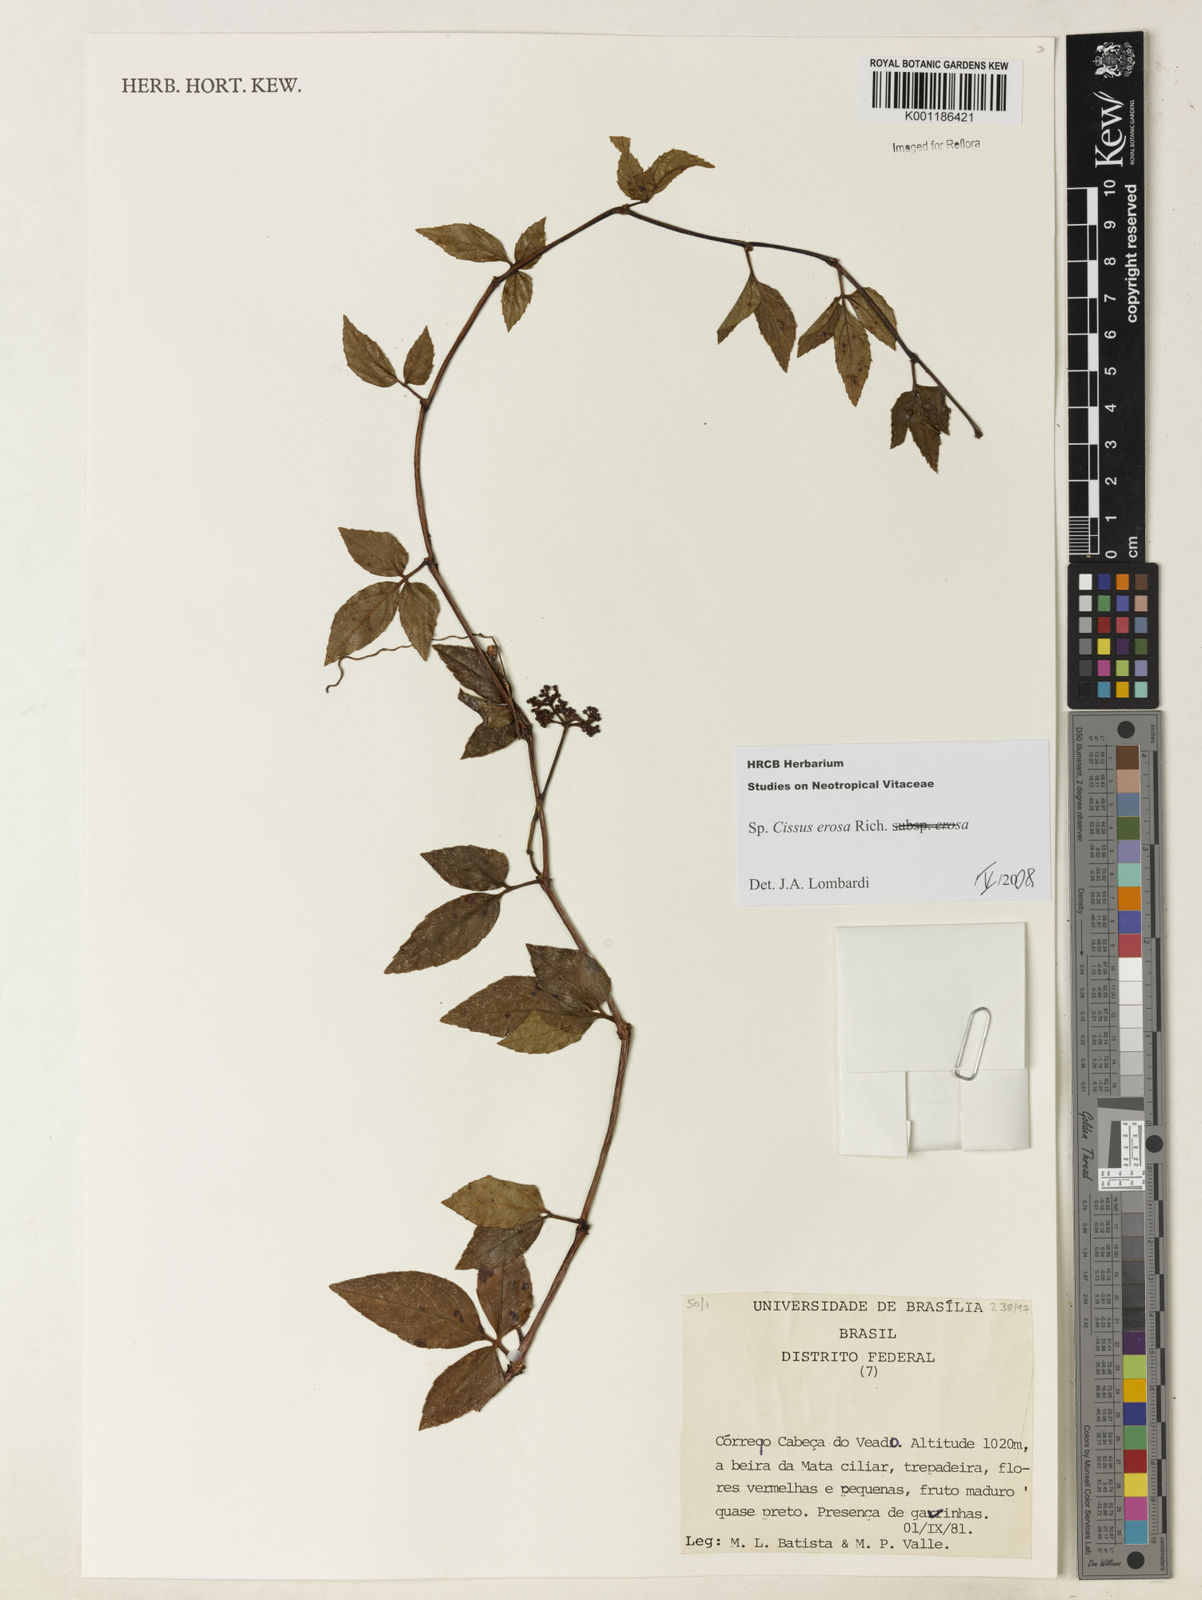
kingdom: Plantae
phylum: Tracheophyta
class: Magnoliopsida
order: Vitales
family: Vitaceae
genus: Cissus
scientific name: Cissus erosa
